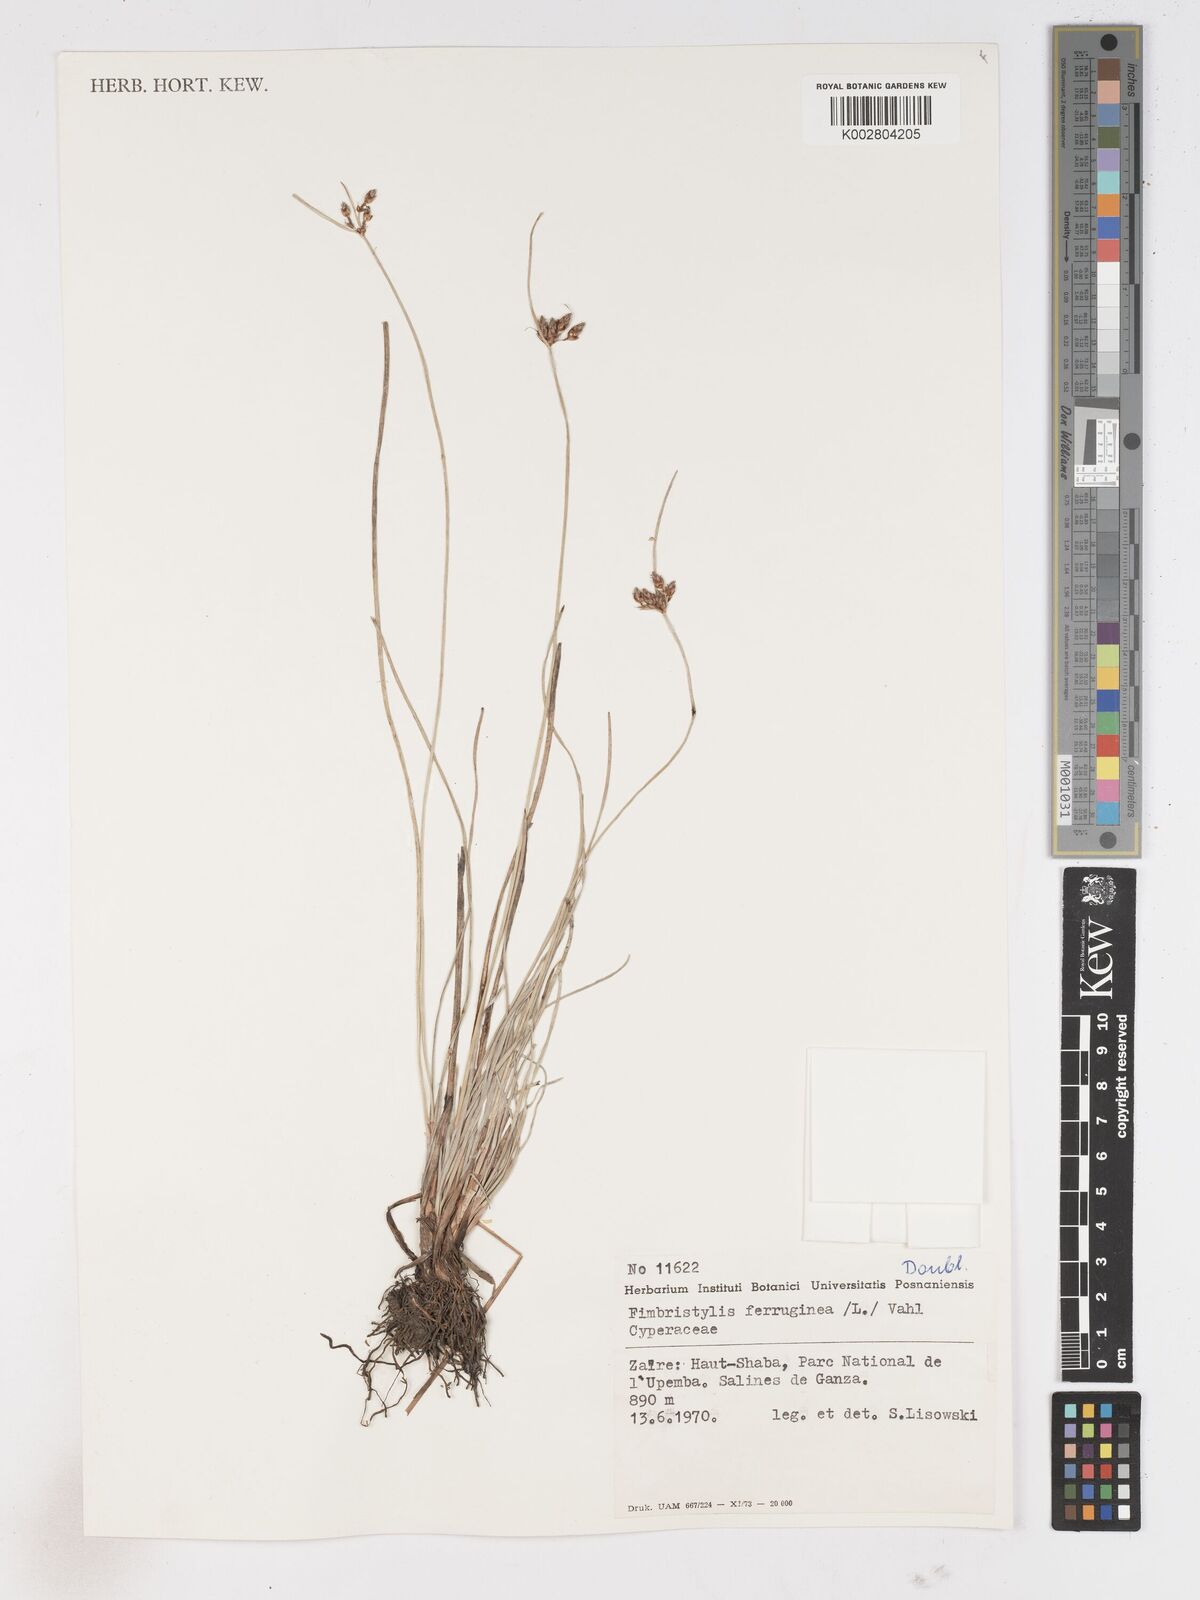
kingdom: Plantae
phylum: Tracheophyta
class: Liliopsida
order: Poales
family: Cyperaceae
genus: Fimbristylis
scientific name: Fimbristylis ferruginea
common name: West indian fimbry
